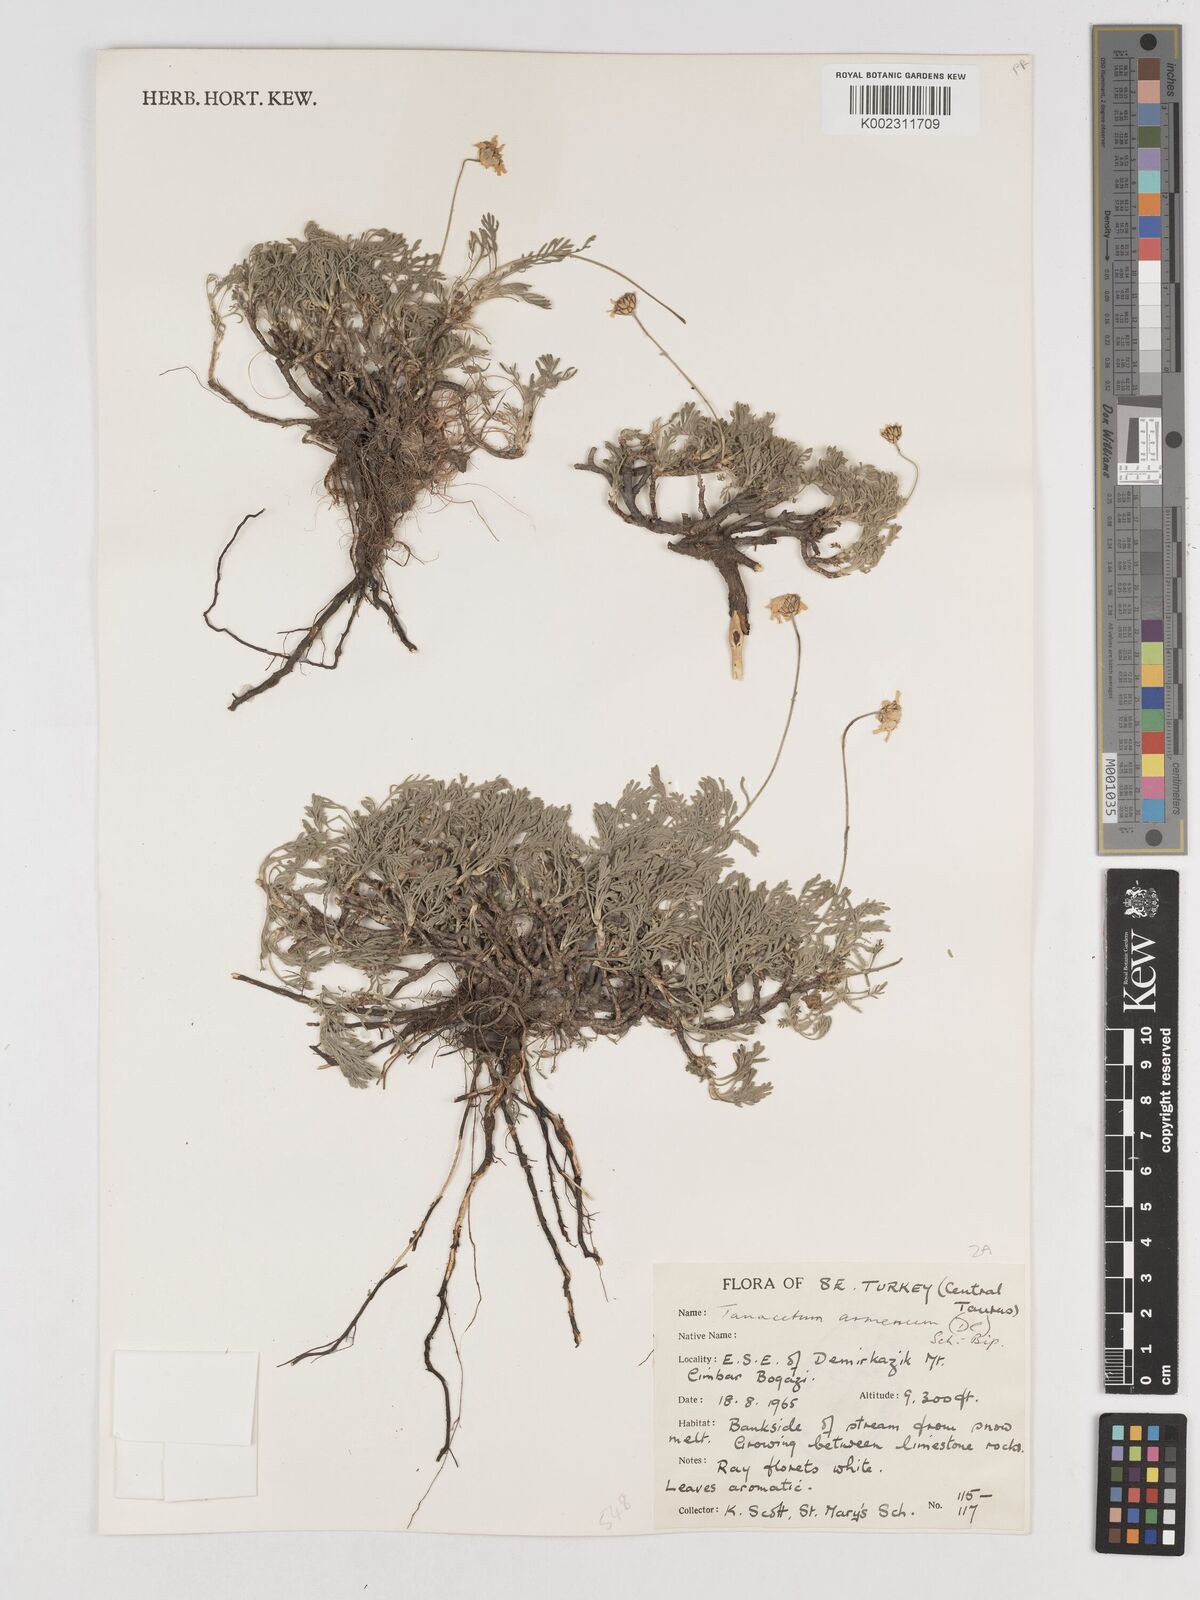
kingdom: Plantae
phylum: Tracheophyta
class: Magnoliopsida
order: Asterales
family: Asteraceae
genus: Tanacetum
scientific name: Tanacetum armenum
